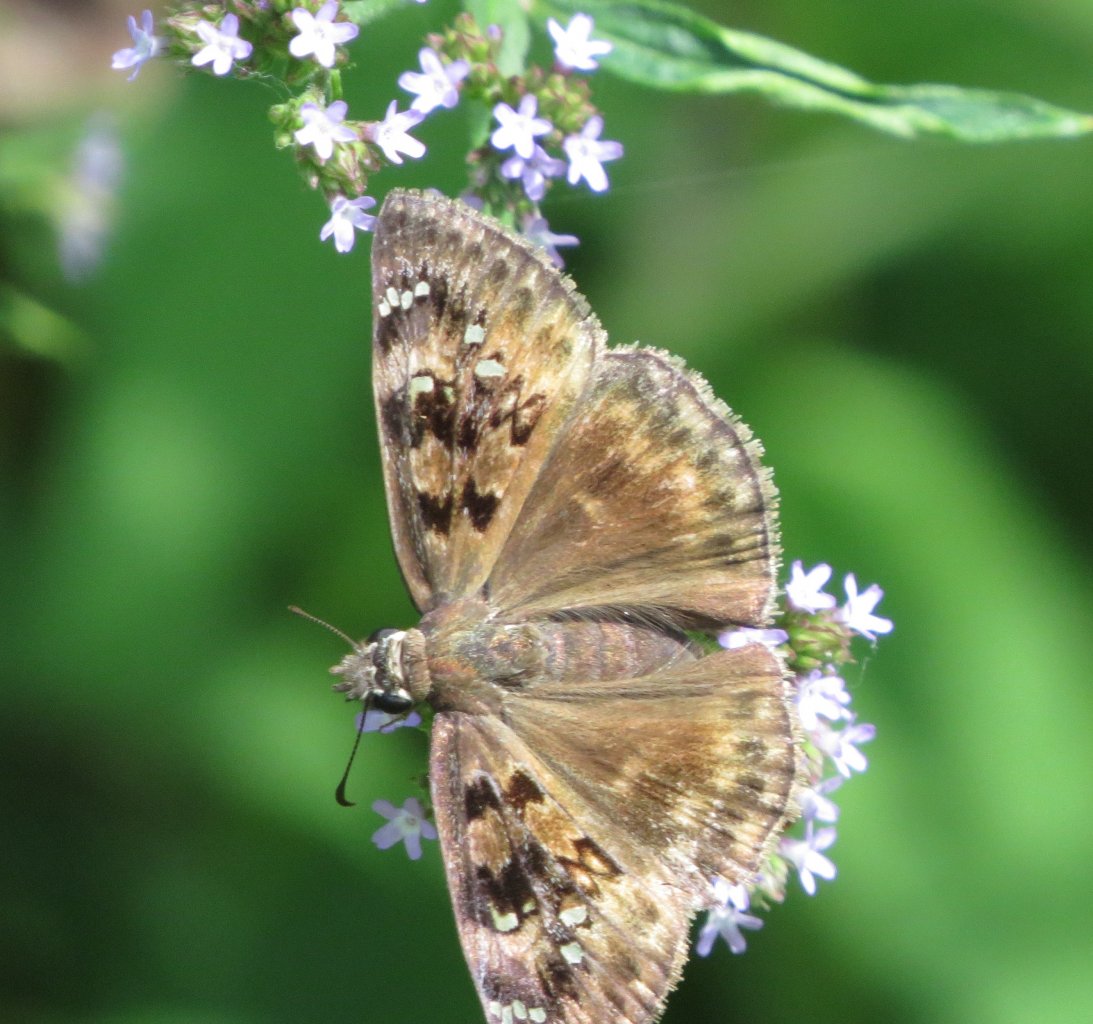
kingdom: Animalia
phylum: Arthropoda
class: Insecta
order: Lepidoptera
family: Hesperiidae
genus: Gesta
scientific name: Gesta
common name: Horace's Duskywing
